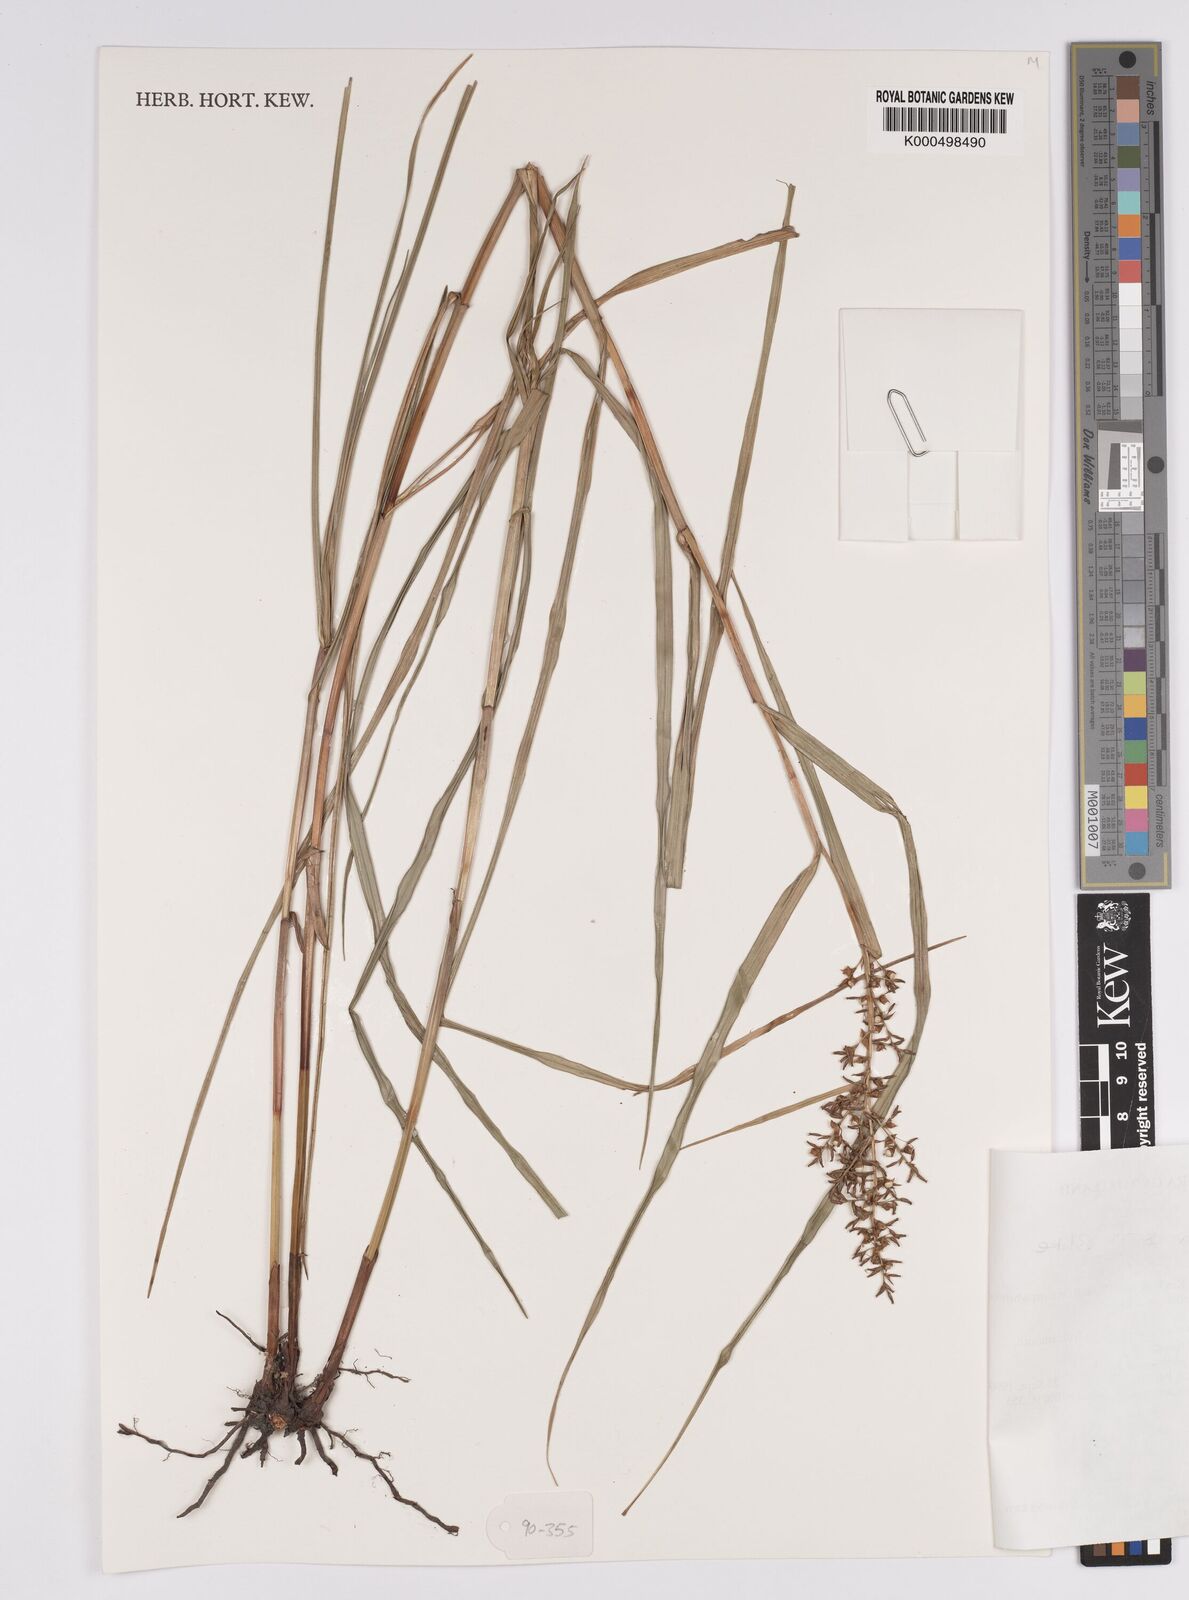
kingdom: Plantae
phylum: Tracheophyta
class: Liliopsida
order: Poales
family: Cyperaceae
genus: Scleria
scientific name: Scleria oblata
